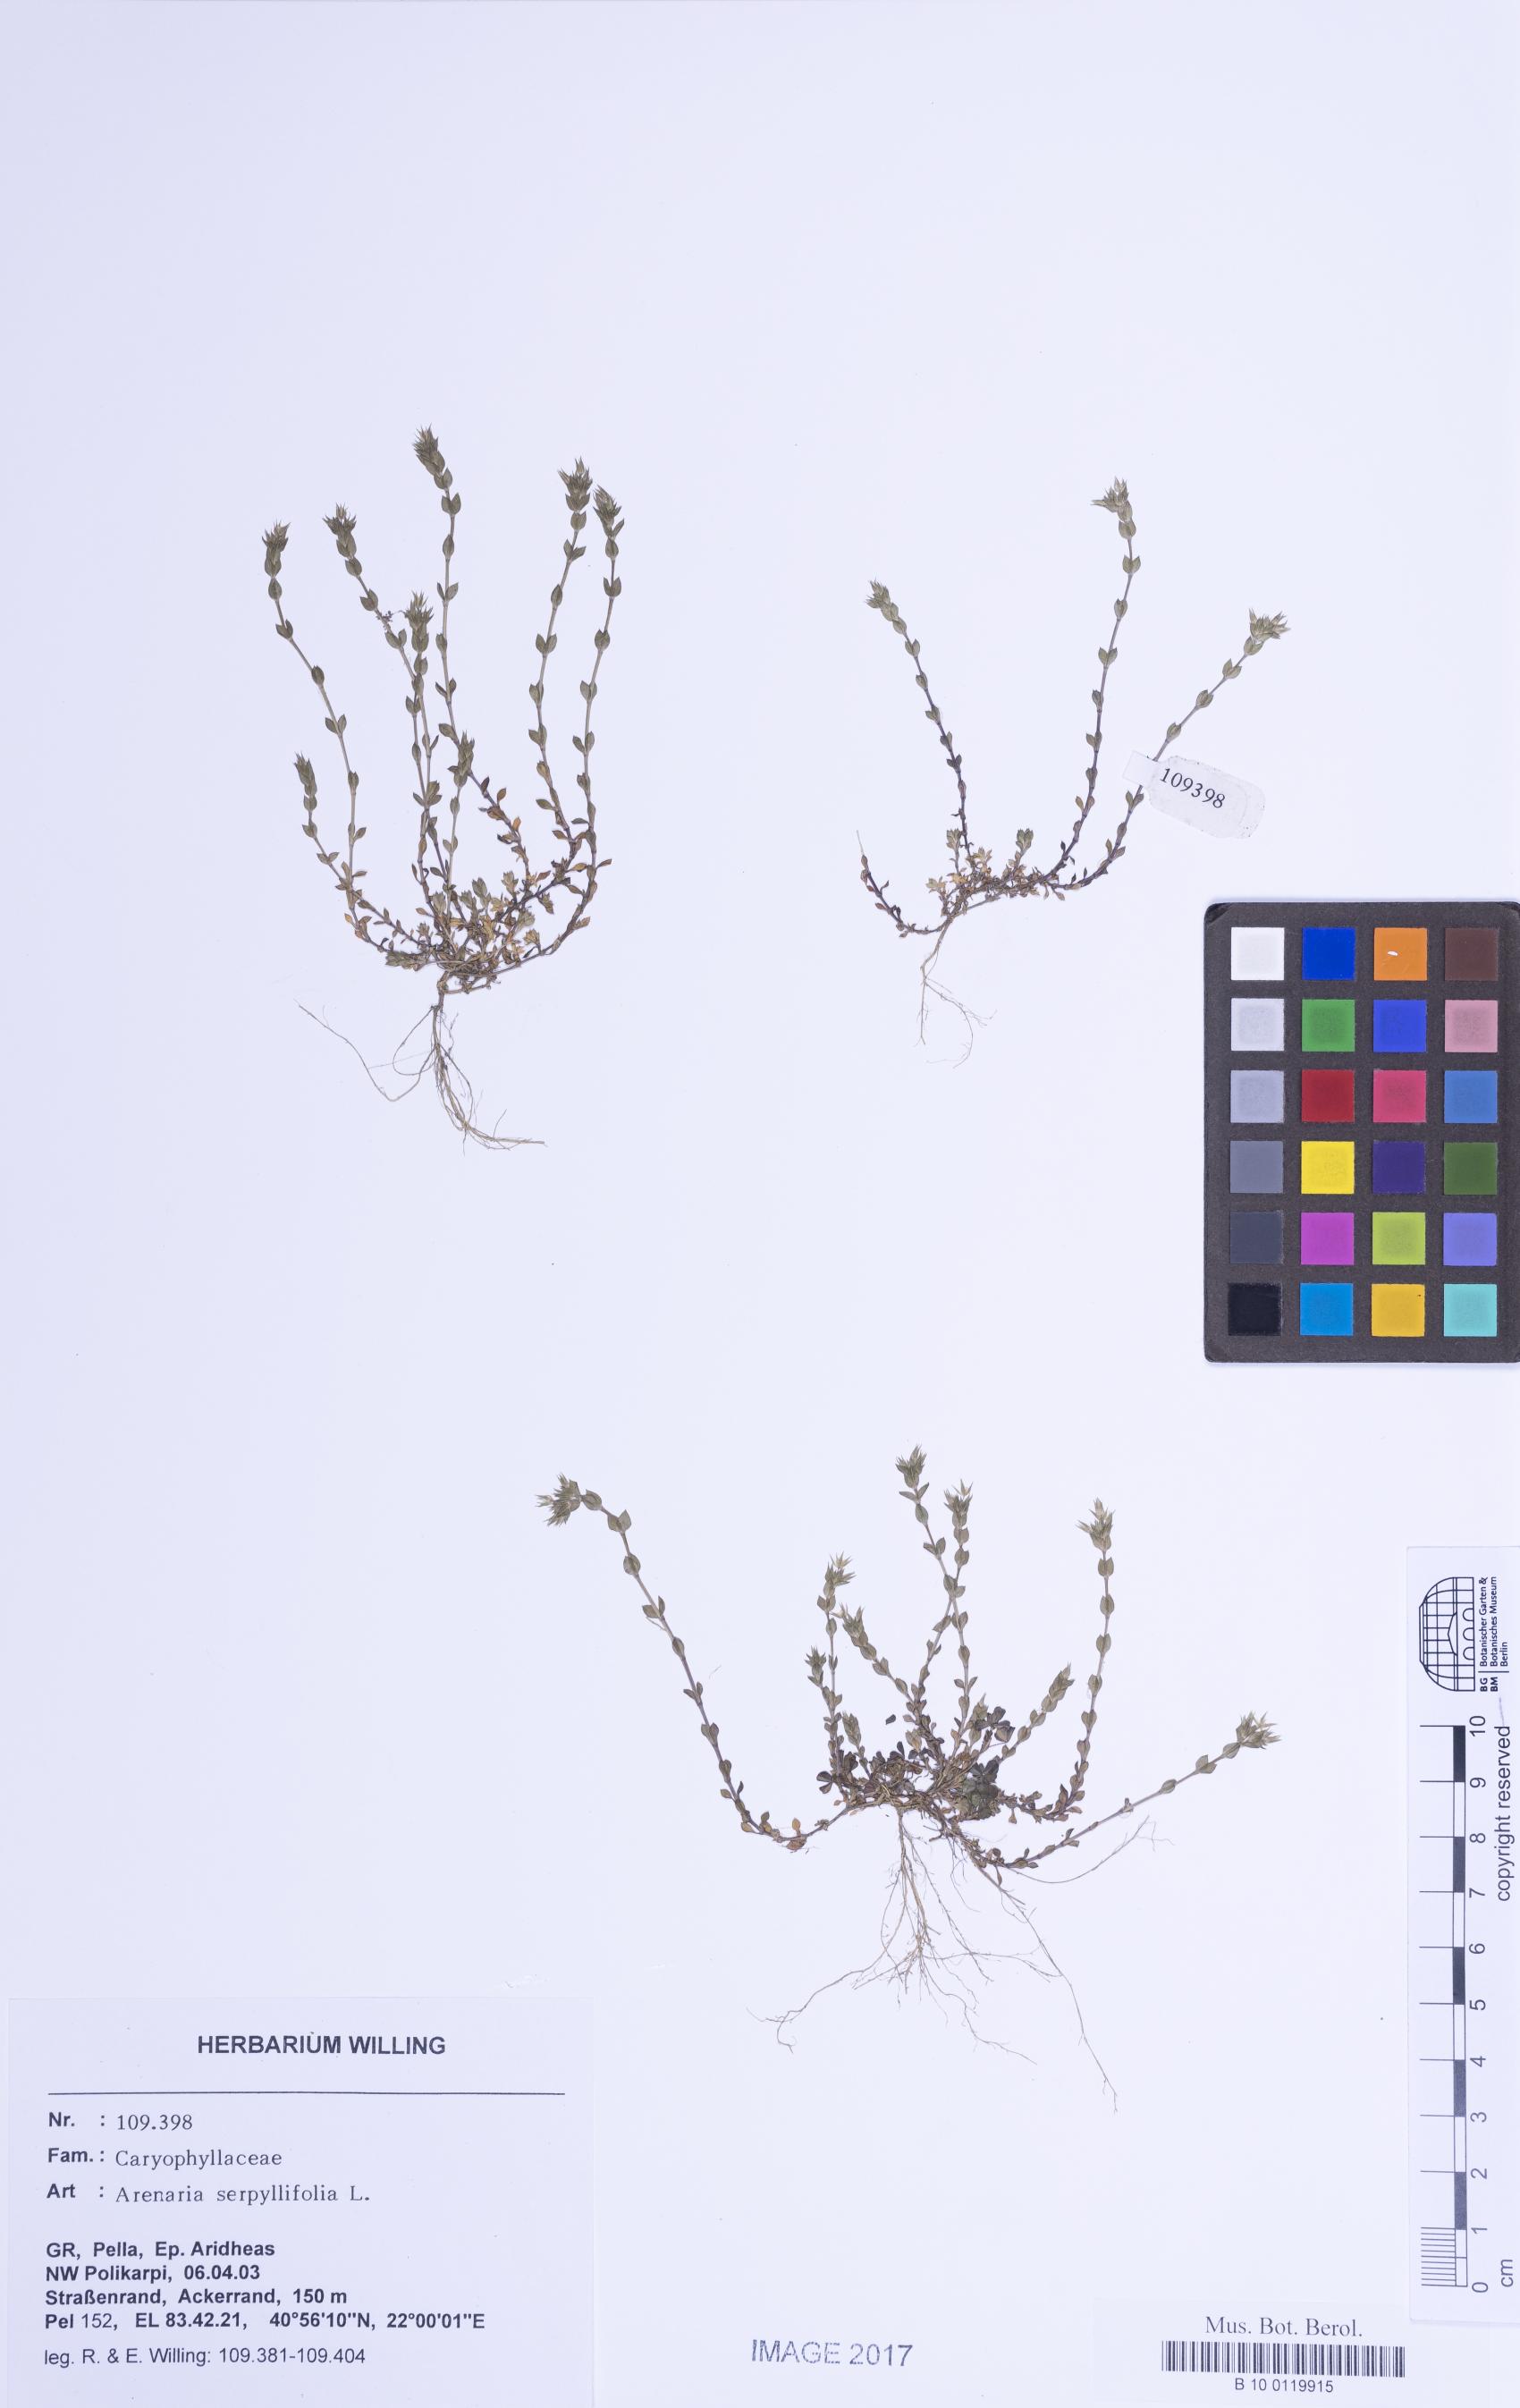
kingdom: Plantae
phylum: Tracheophyta
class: Magnoliopsida
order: Caryophyllales
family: Caryophyllaceae
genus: Arenaria
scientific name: Arenaria serpyllifolia
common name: Thyme-leaved sandwort
